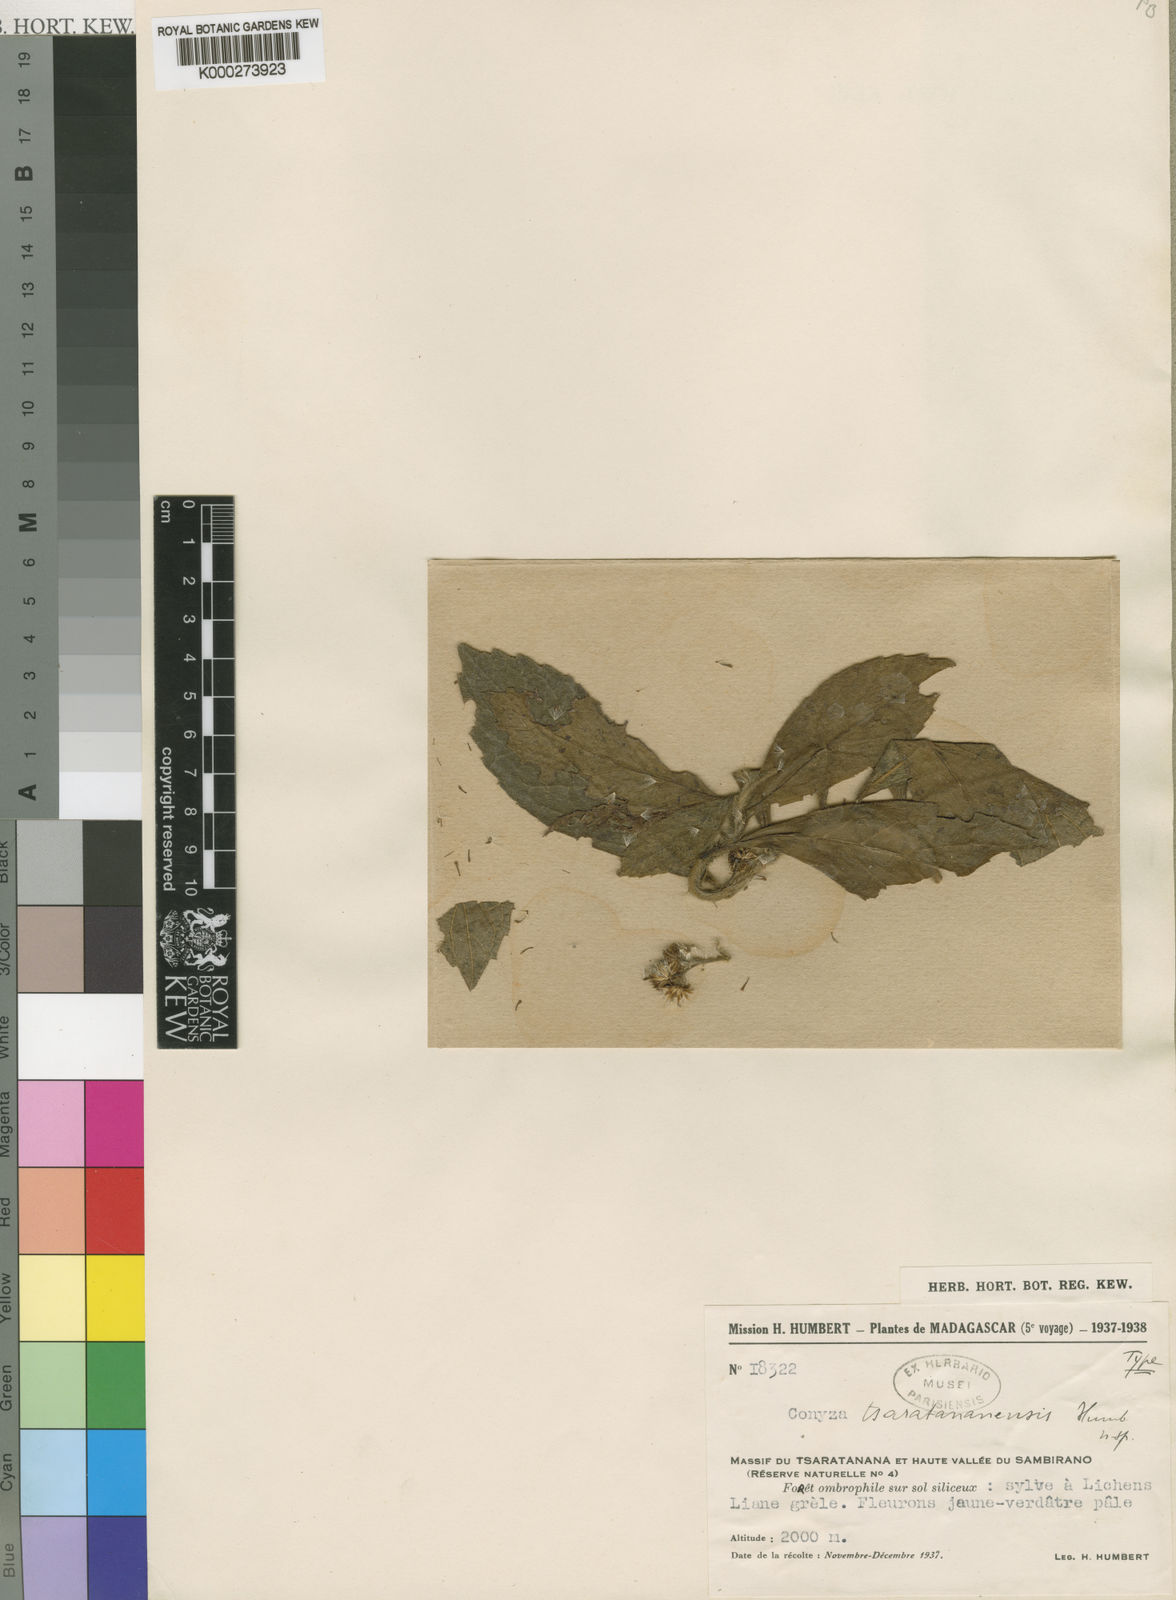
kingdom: Plantae
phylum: Tracheophyta
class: Magnoliopsida
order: Asterales
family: Asteraceae
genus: Conyza
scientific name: Conyza
